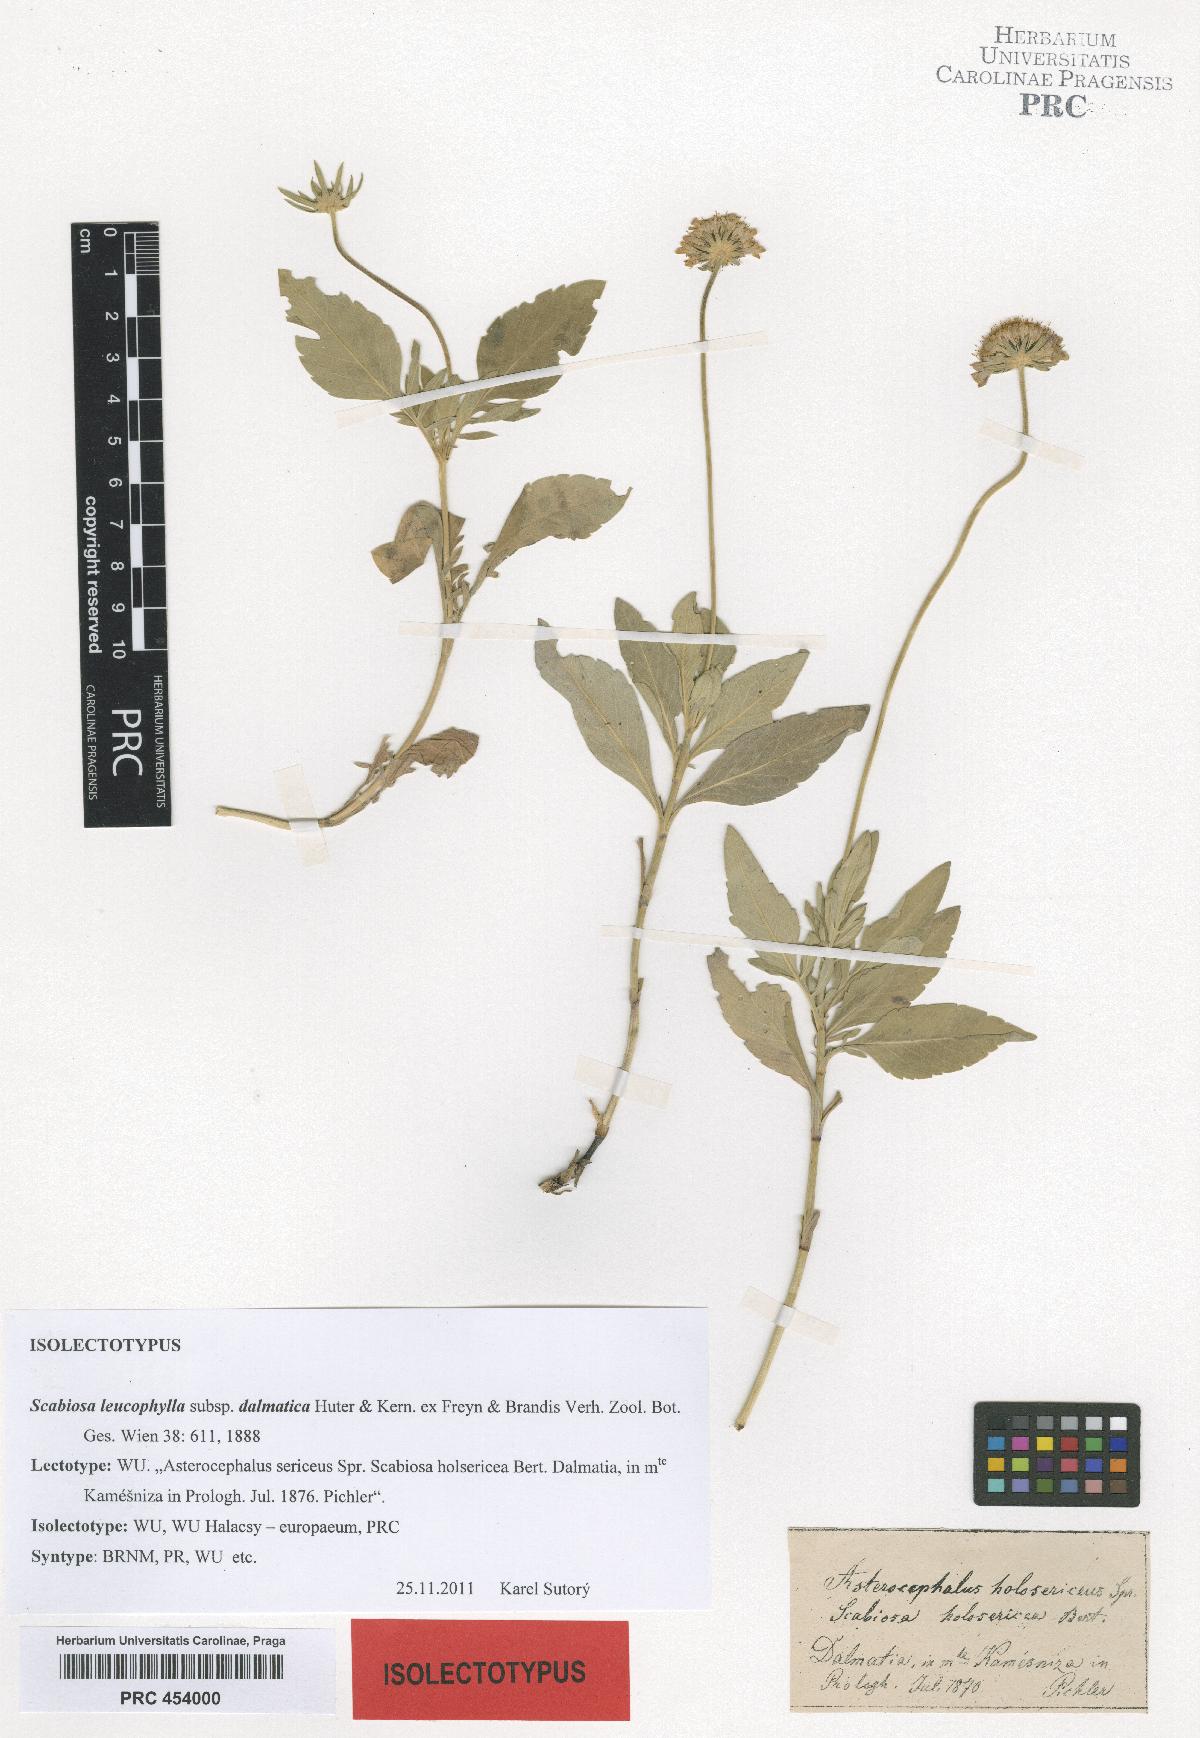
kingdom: Plantae
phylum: Tracheophyta
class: Magnoliopsida
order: Dipsacales
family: Caprifoliaceae
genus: Scabiosa
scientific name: Scabiosa cinerea
